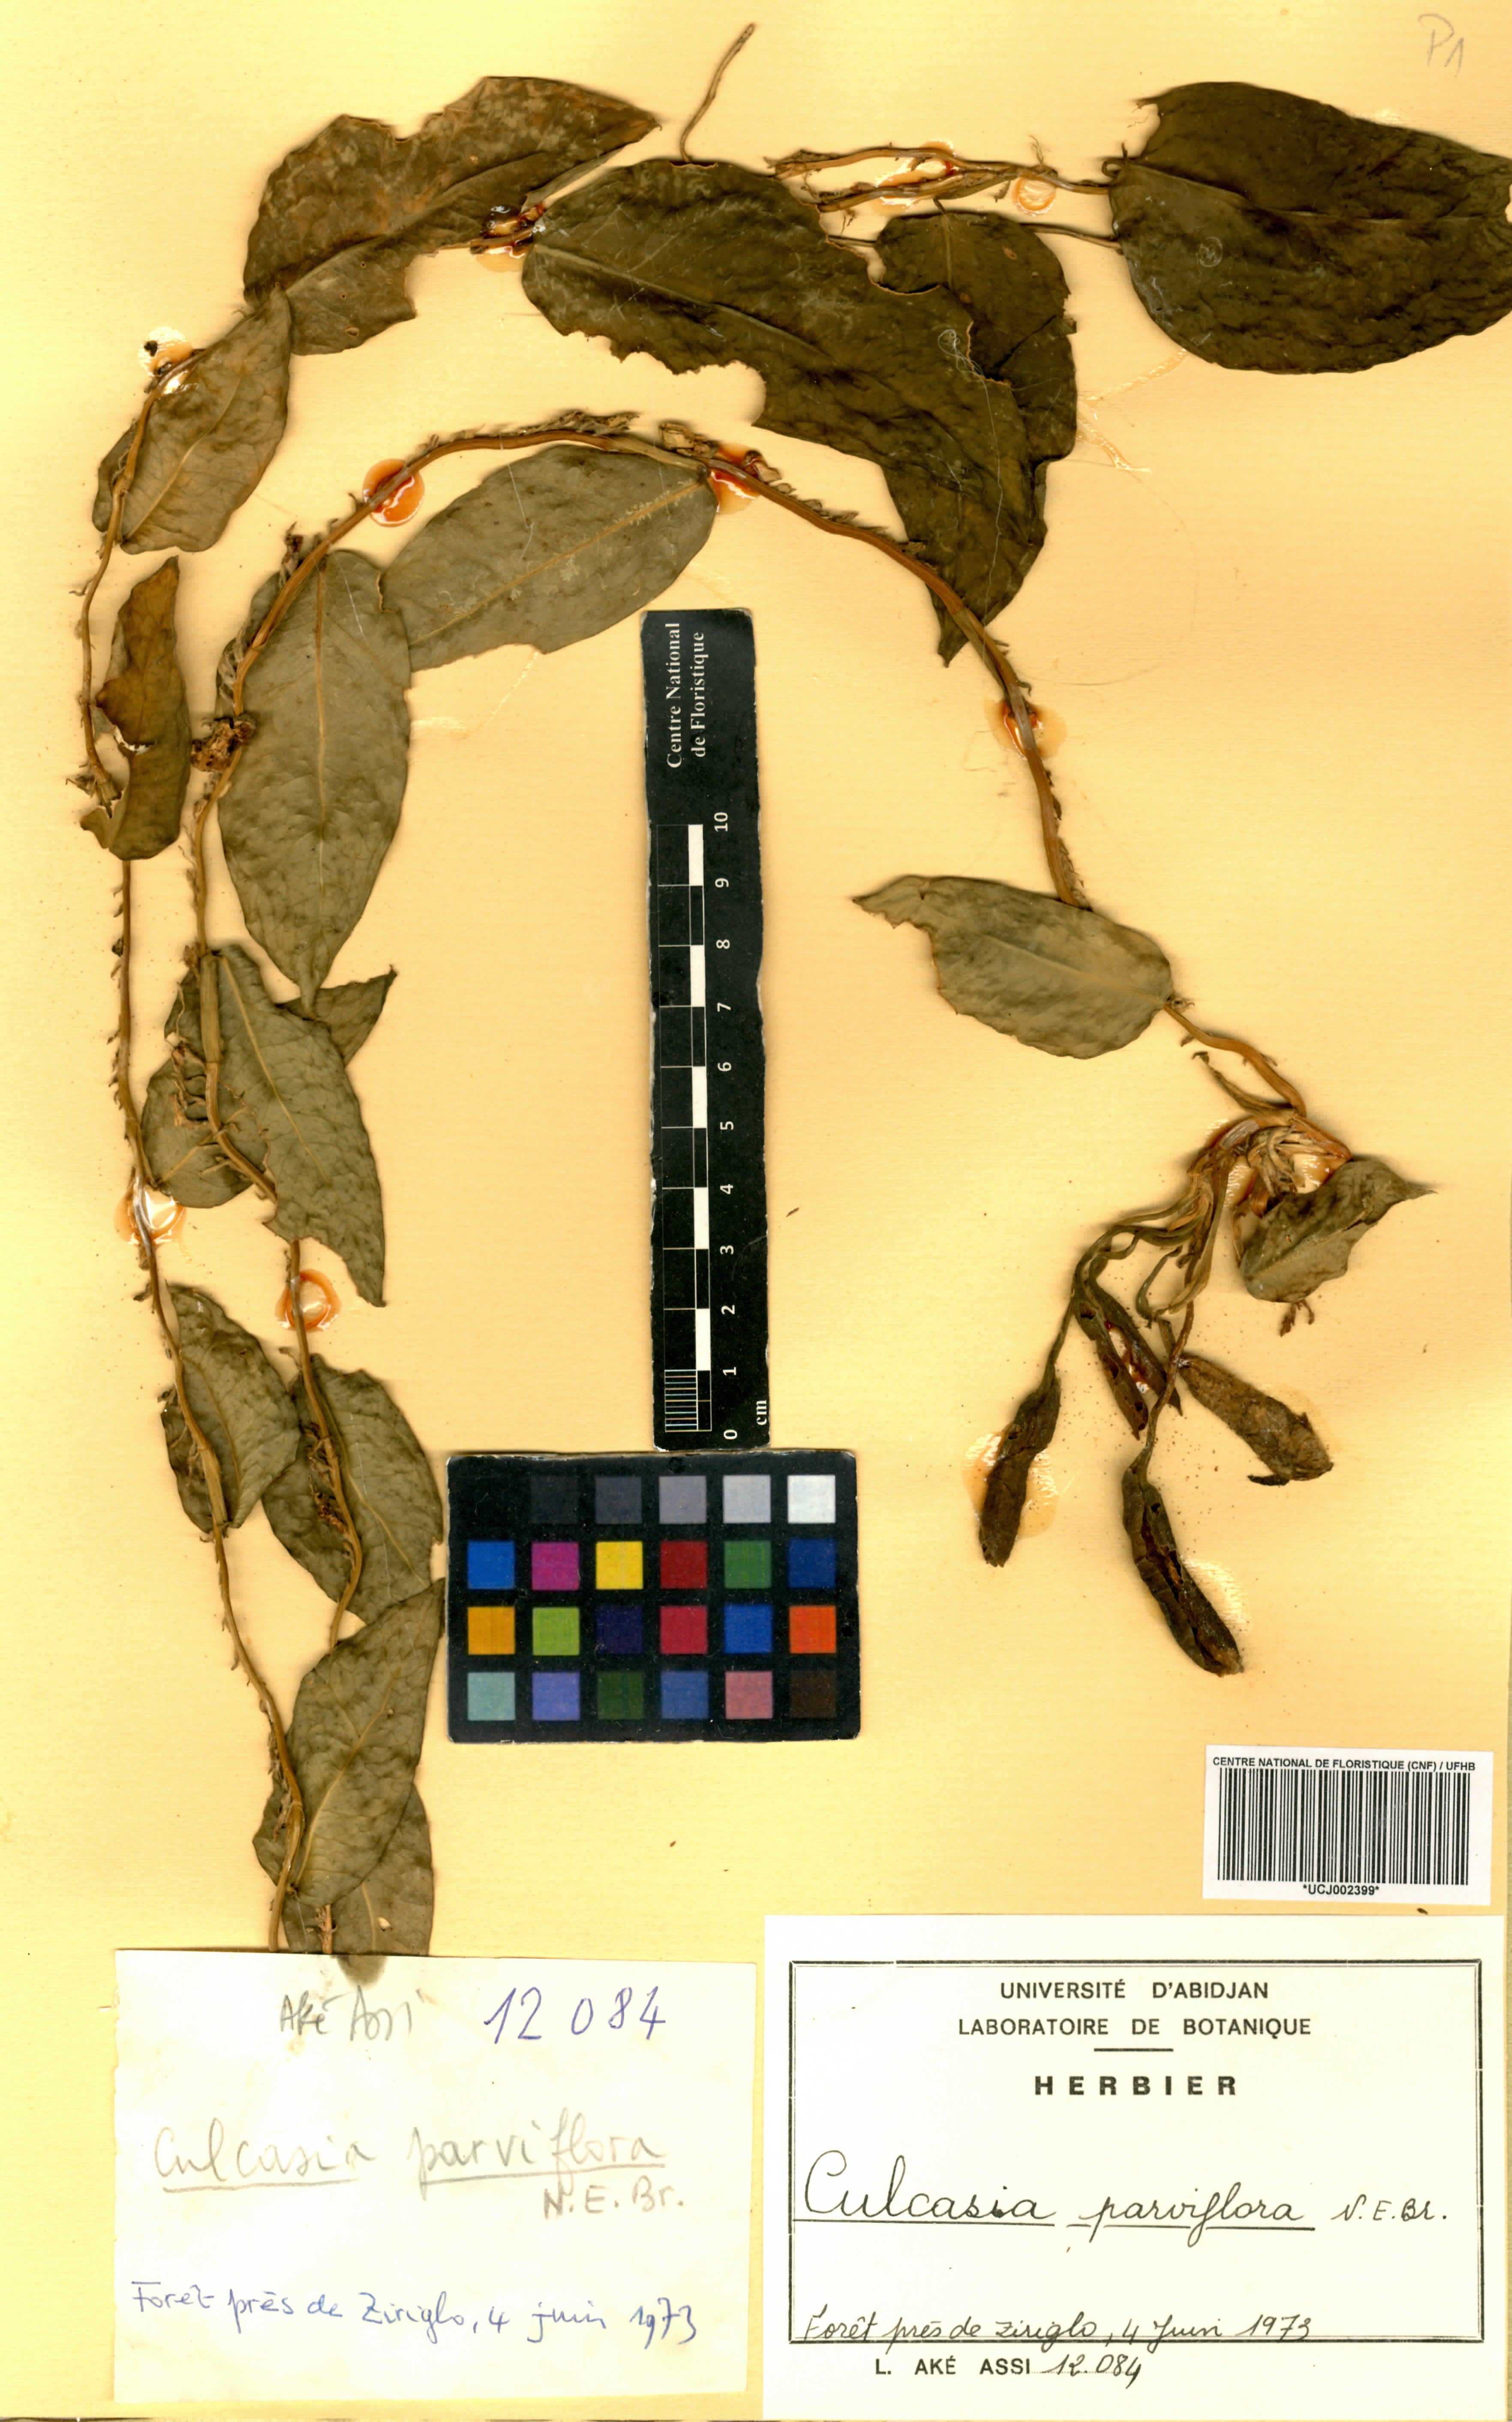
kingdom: Plantae
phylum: Tracheophyta
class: Liliopsida
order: Alismatales
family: Araceae
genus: Culcasia
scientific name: Culcasia parviflora
